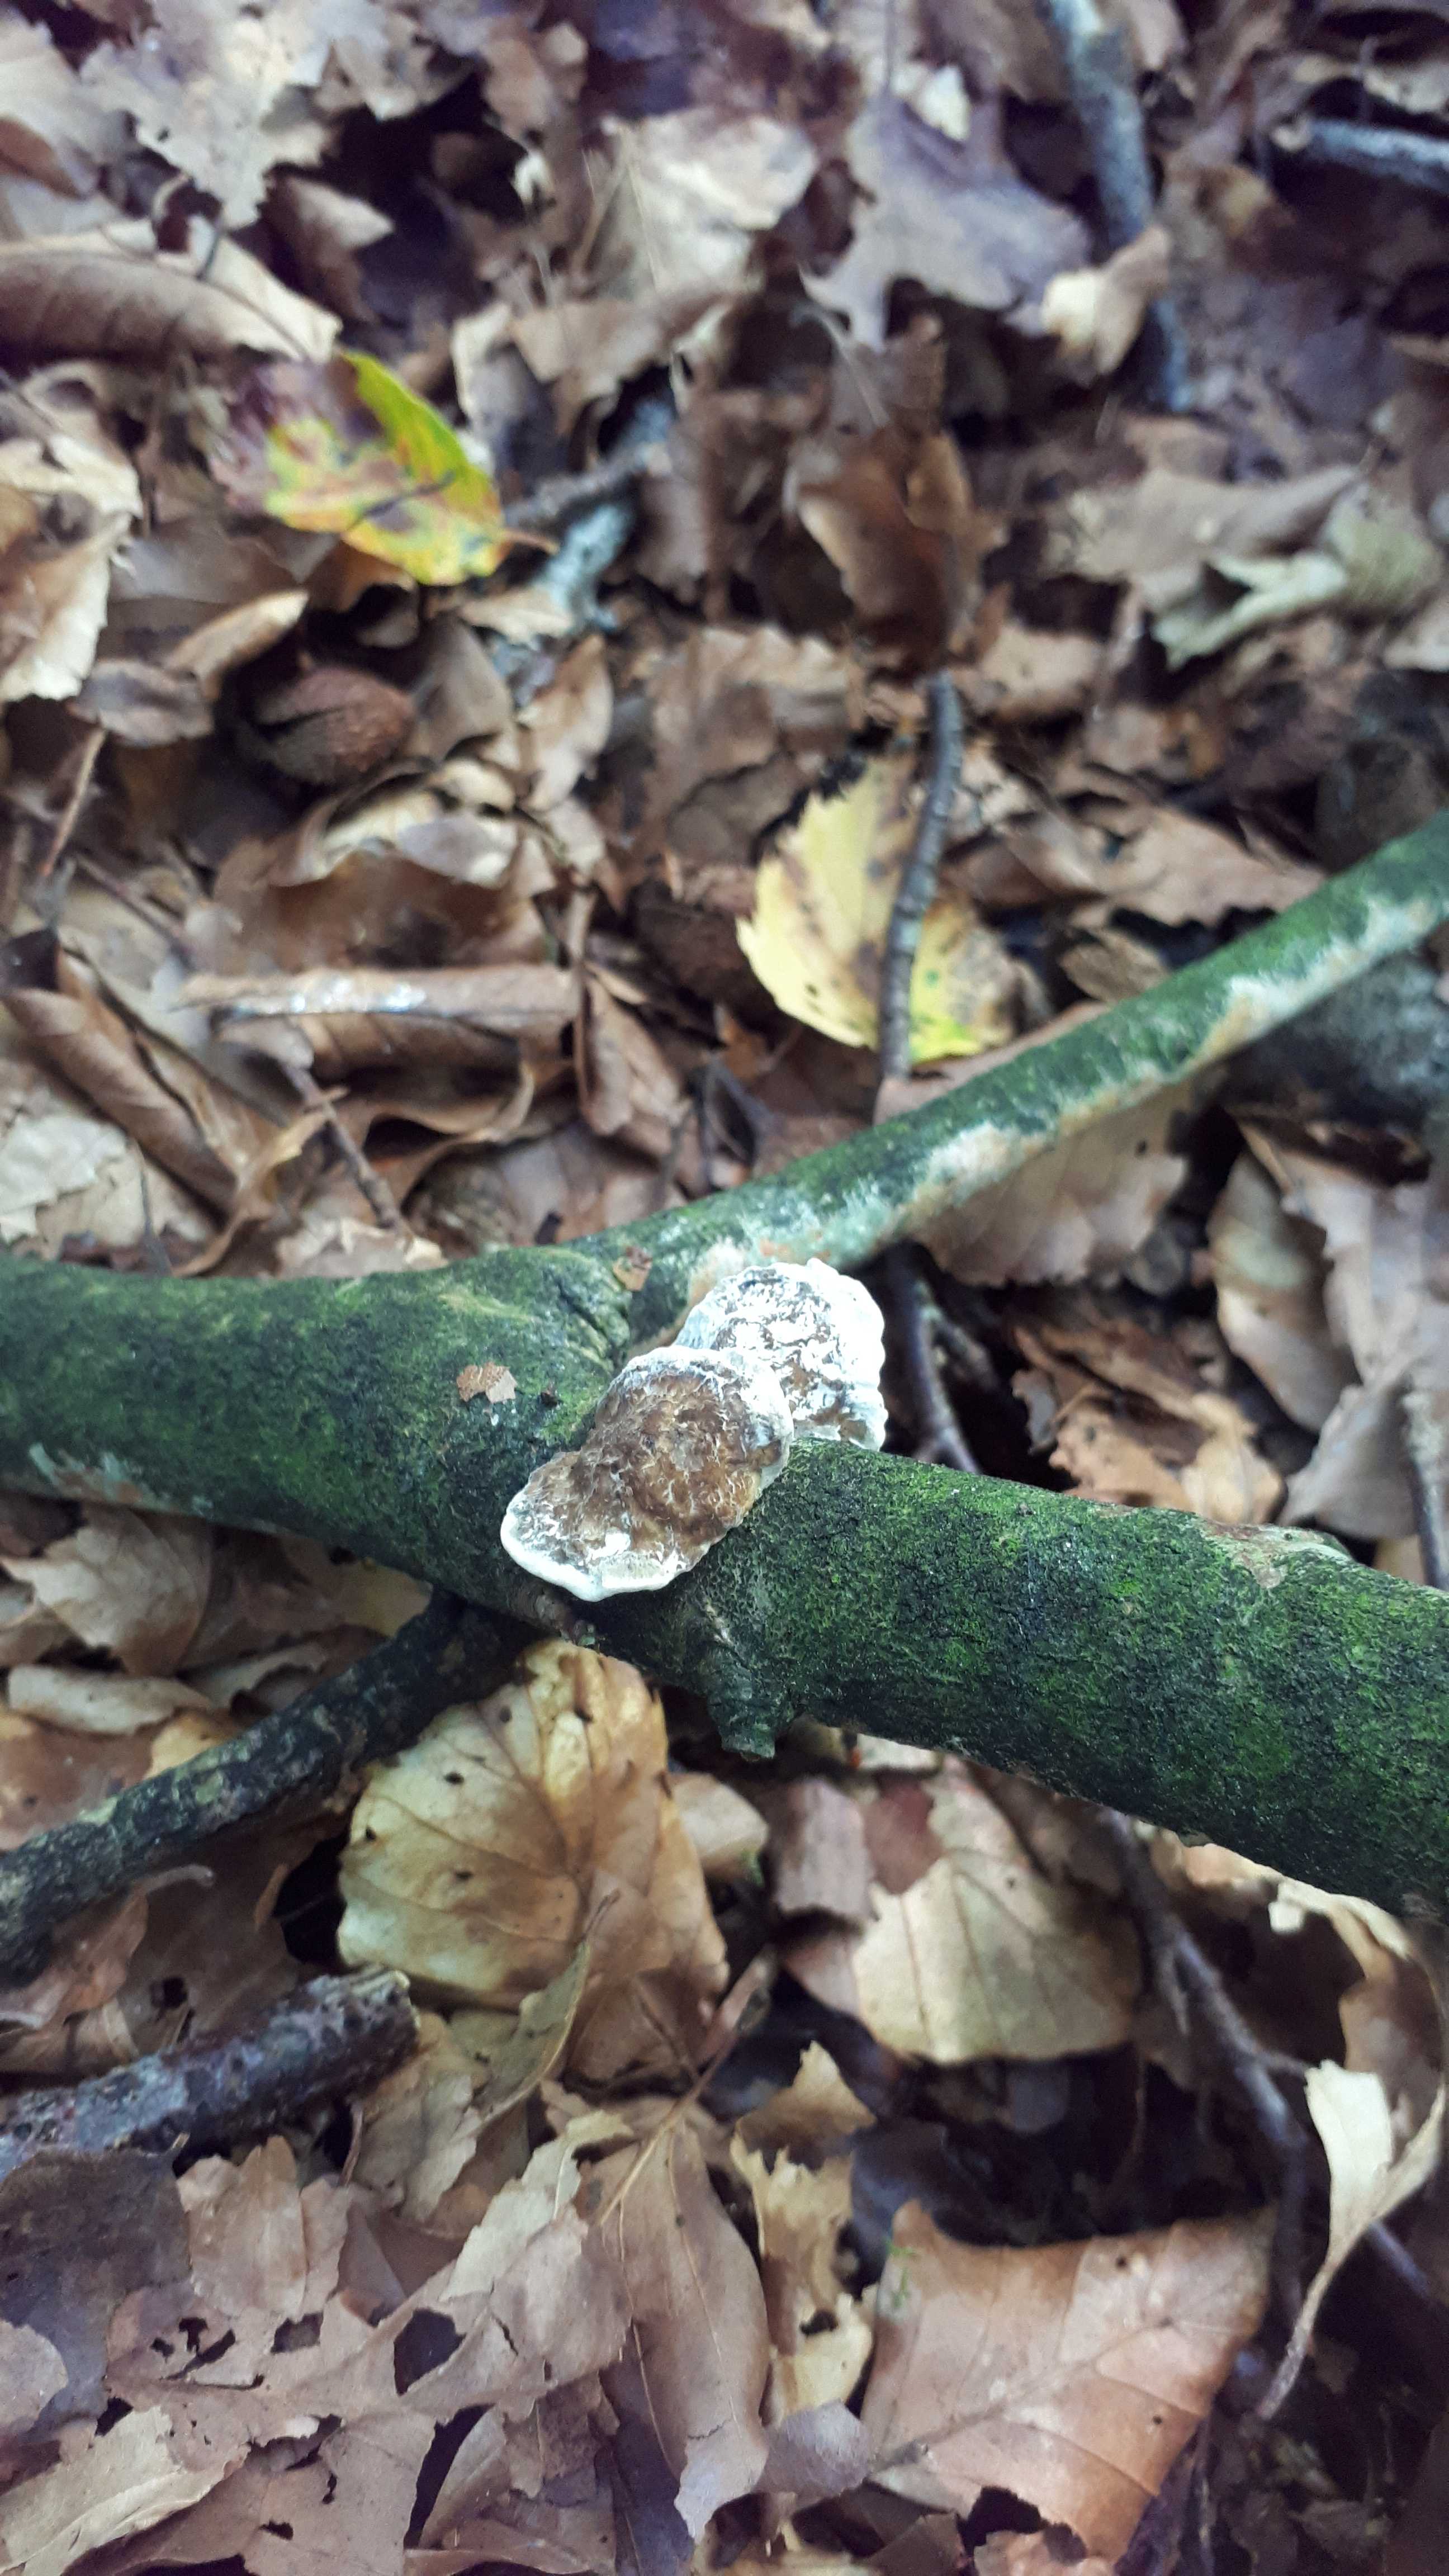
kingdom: Fungi
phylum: Basidiomycota
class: Agaricomycetes
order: Polyporales
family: Polyporaceae
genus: Daedaleopsis
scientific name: Daedaleopsis confragosa
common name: rødmende læderporesvamp
